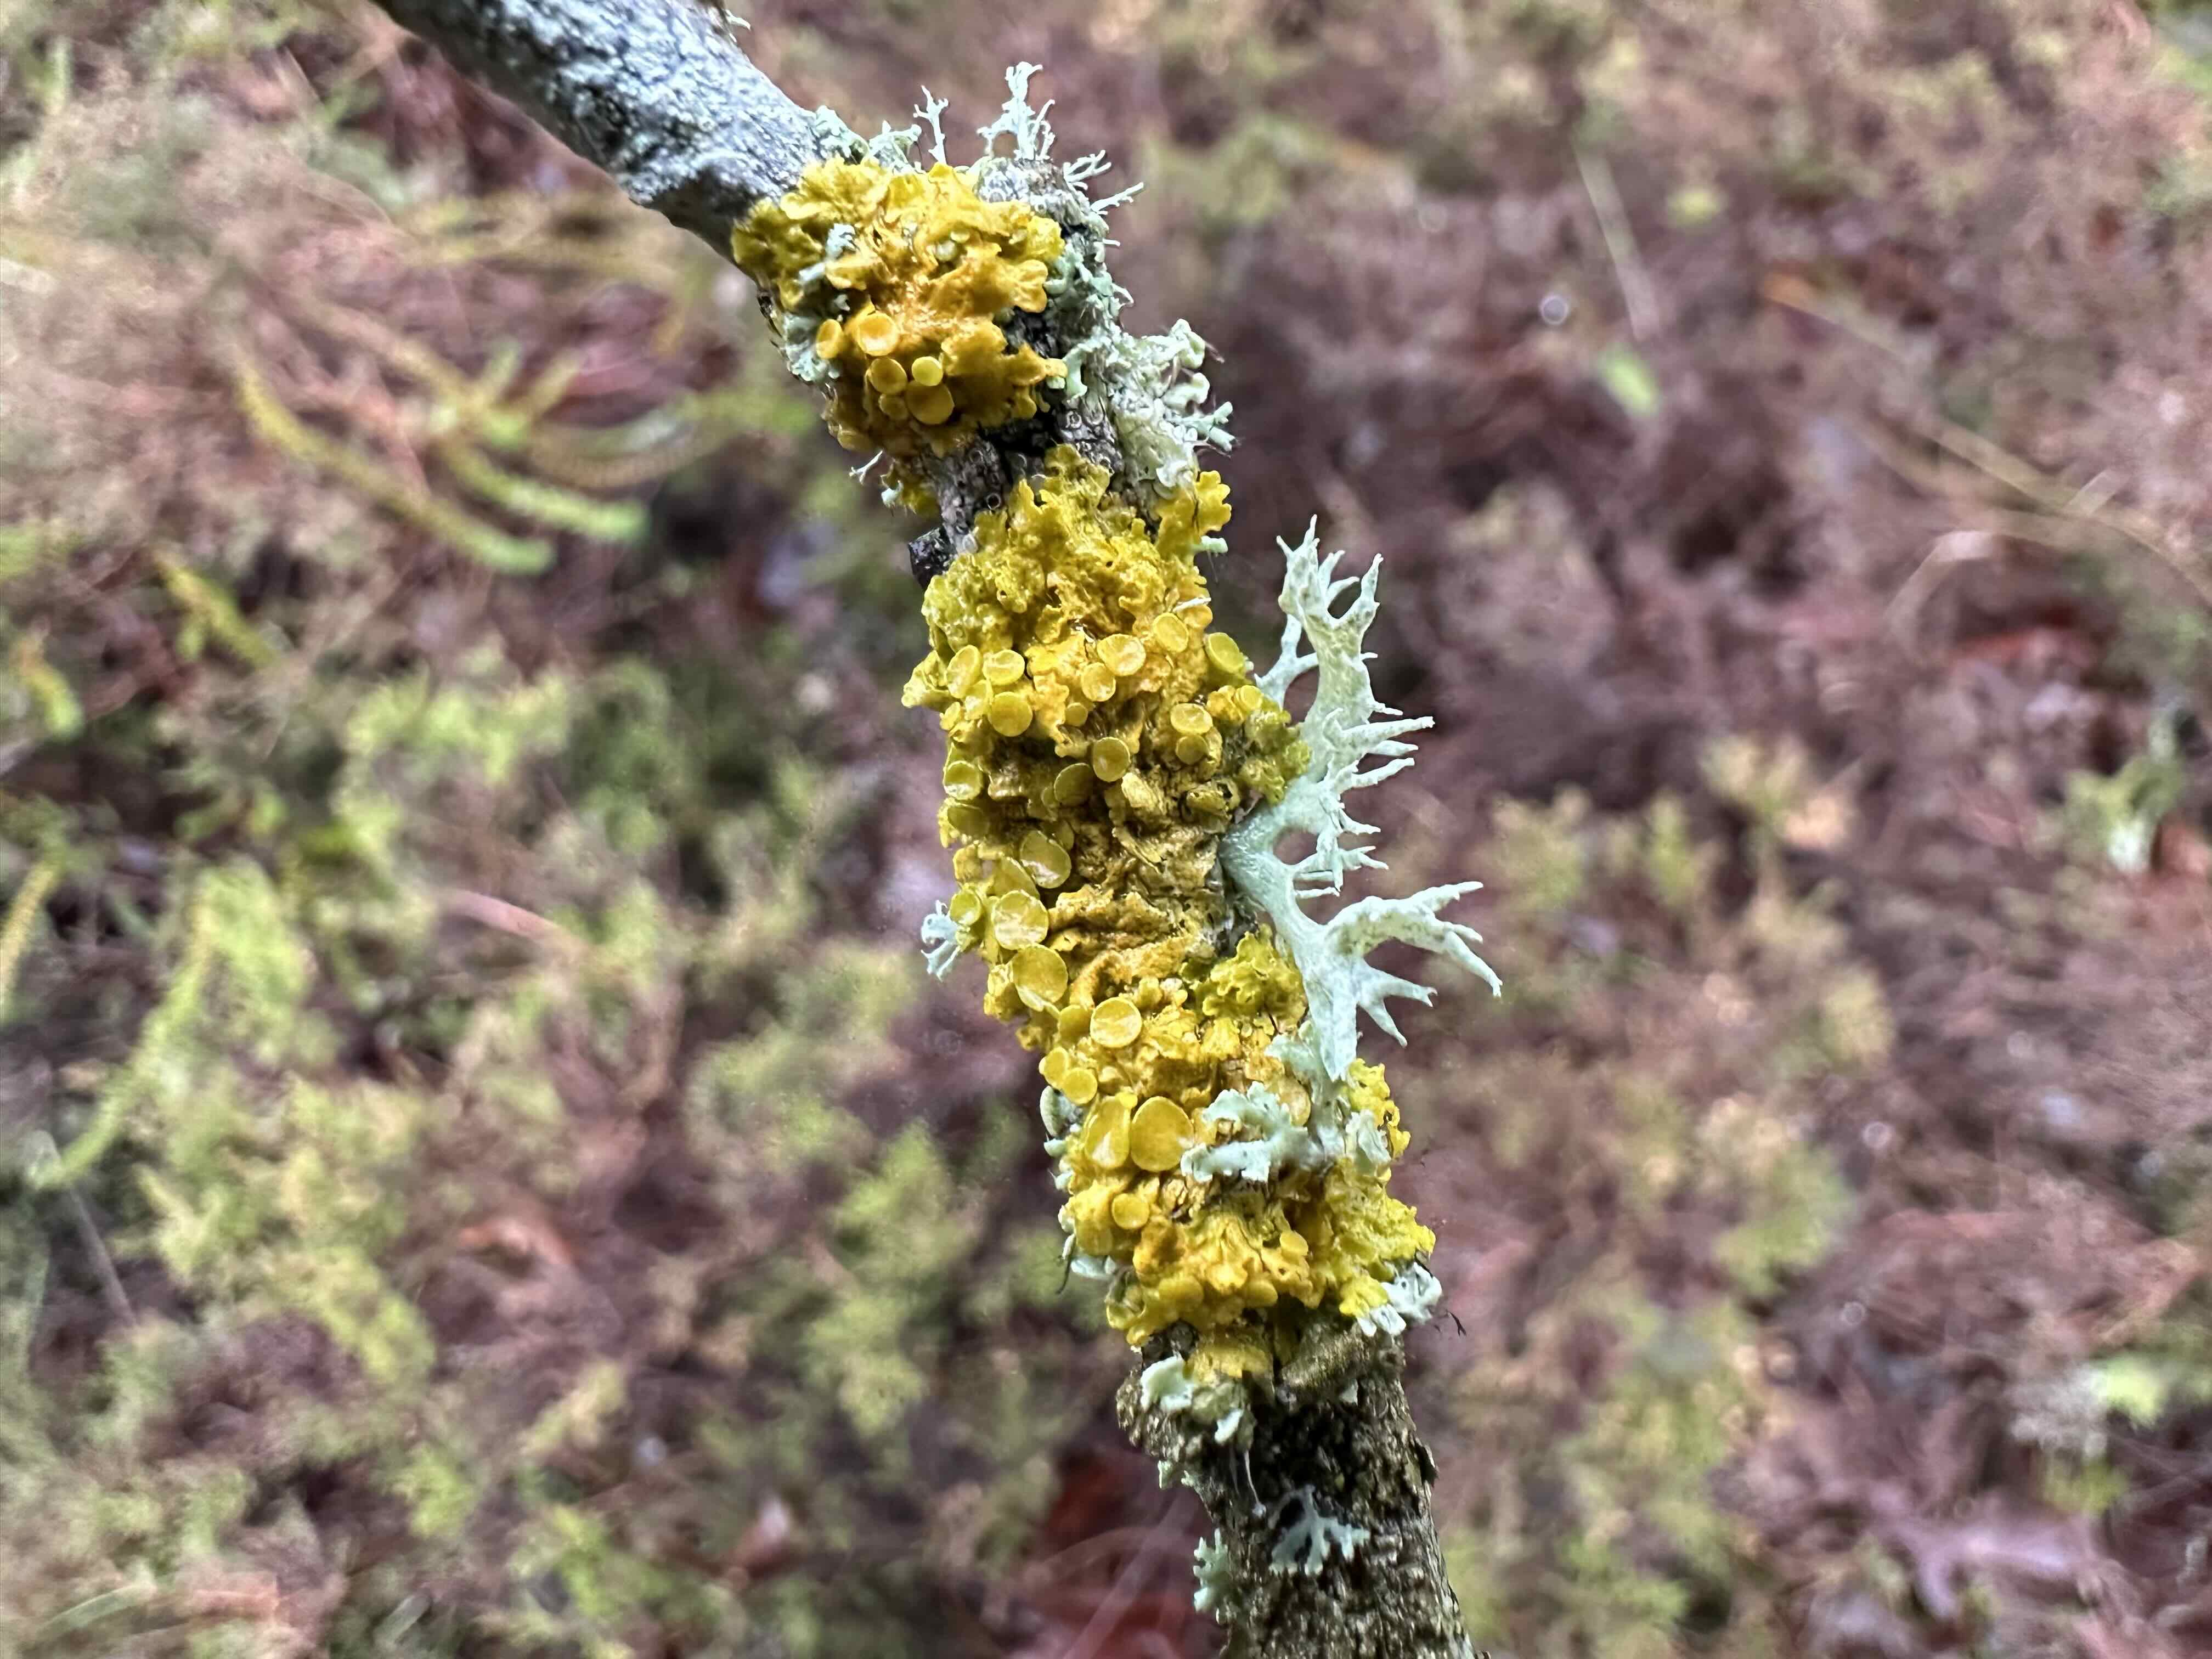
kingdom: Fungi
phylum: Ascomycota
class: Lecanoromycetes
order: Teloschistales
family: Teloschistaceae
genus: Xanthoria
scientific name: Xanthoria parietina
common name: almindelig væggelav
